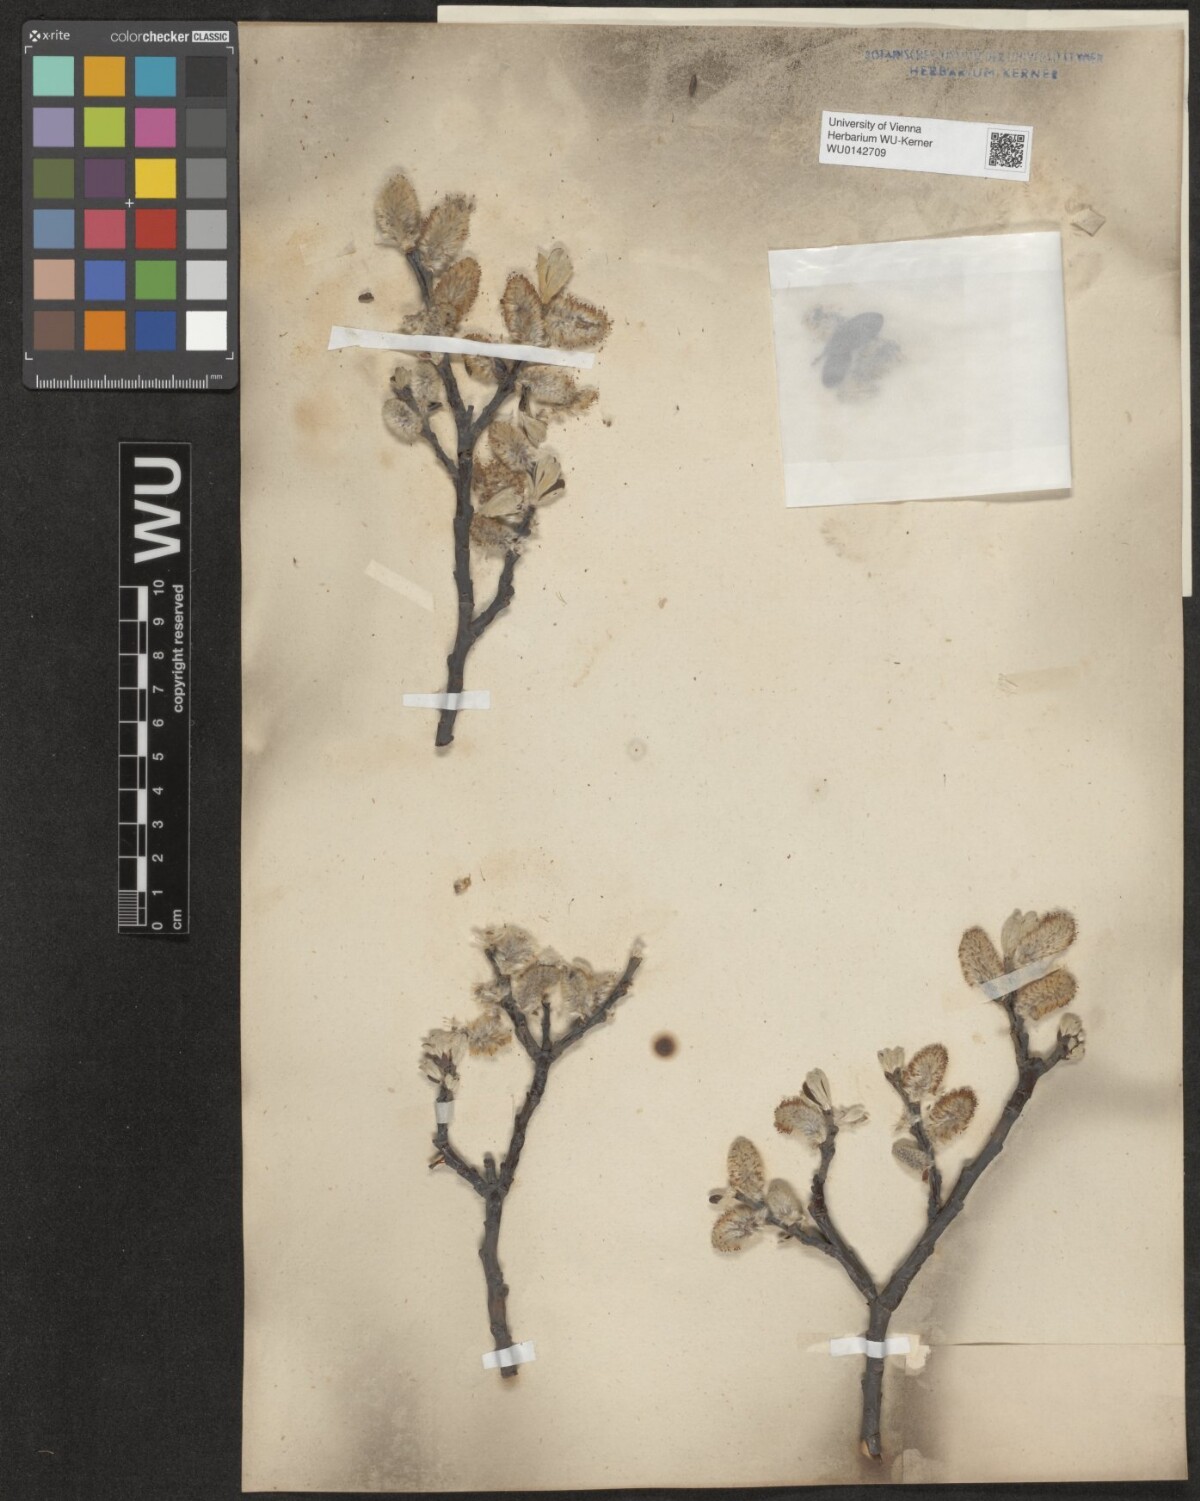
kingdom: Plantae
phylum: Tracheophyta
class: Magnoliopsida
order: Malpighiales
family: Salicaceae
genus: Salix
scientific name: Salix helvetica
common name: Swiss willow
